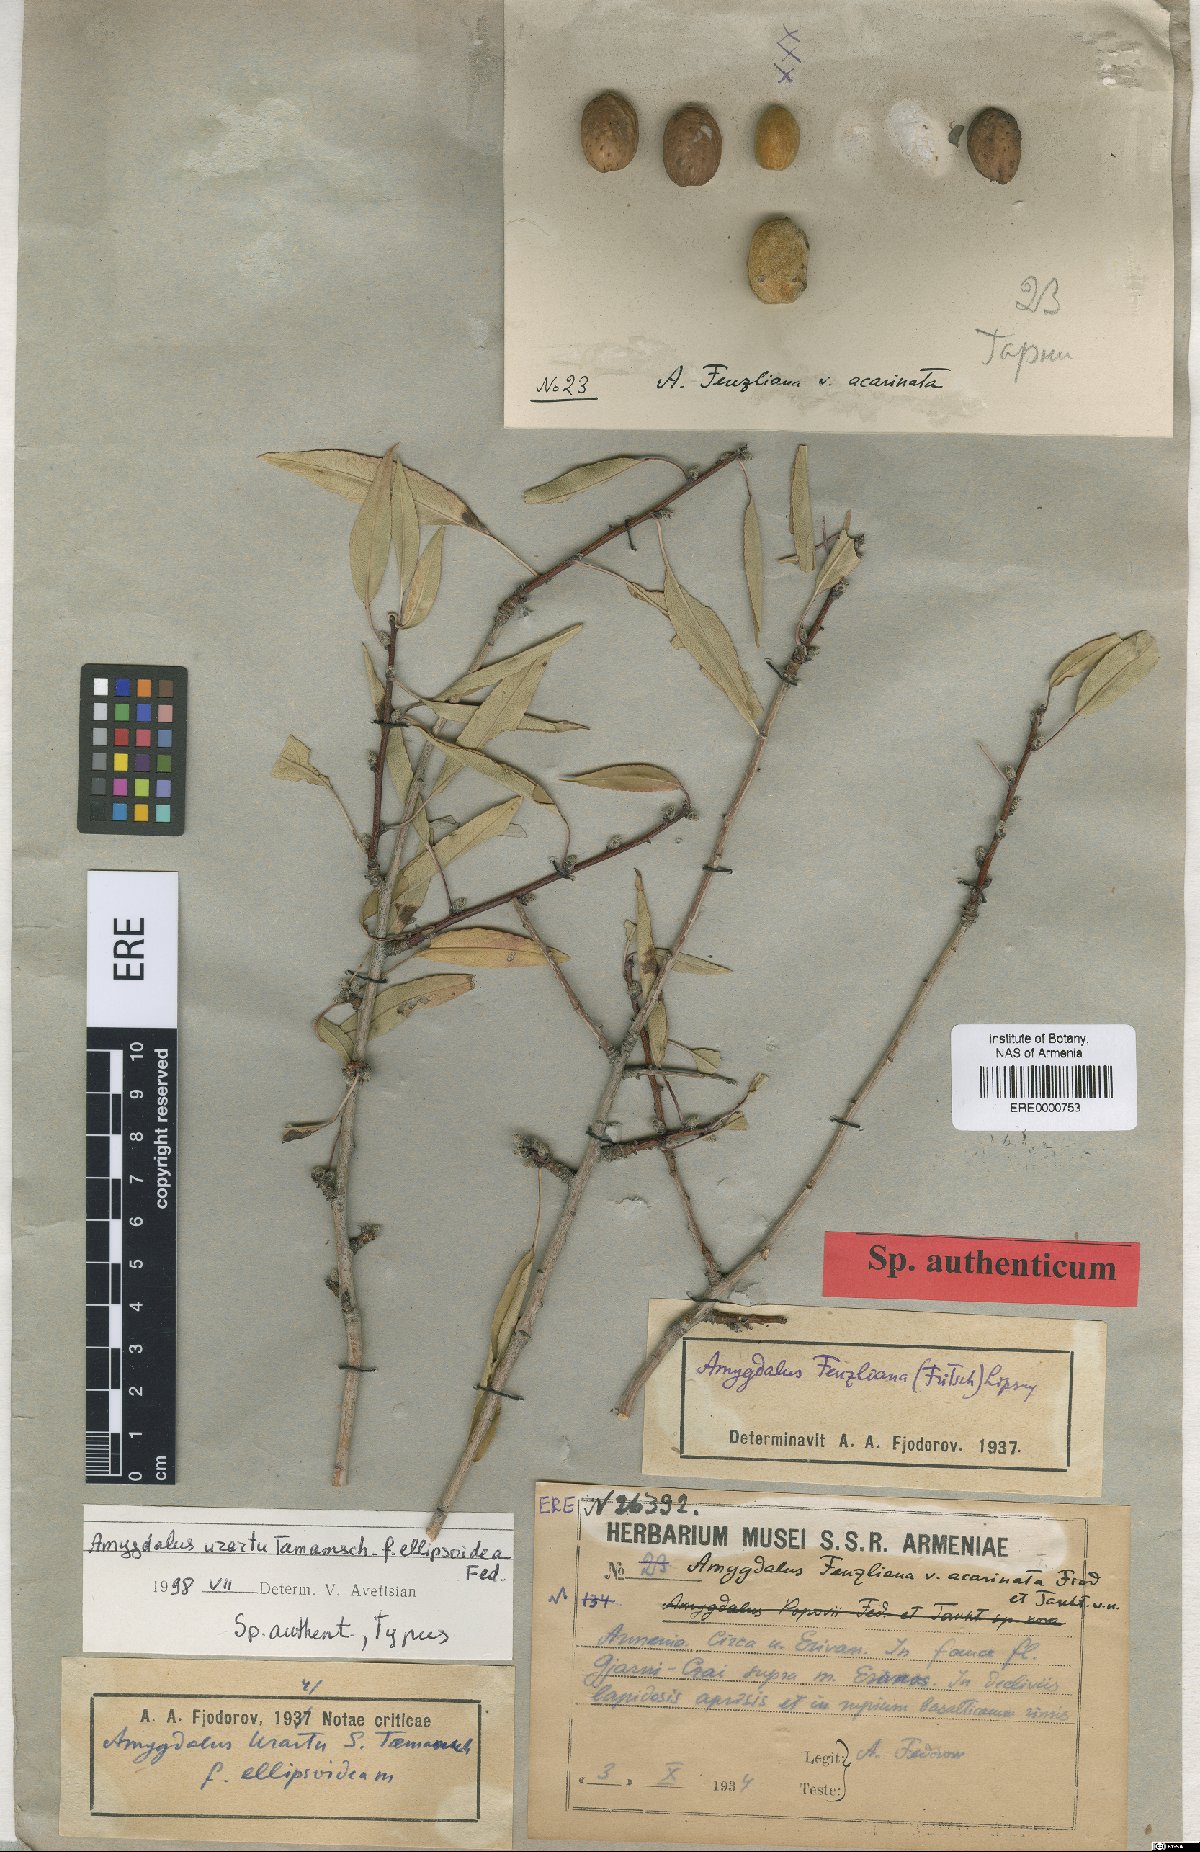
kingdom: Plantae
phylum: Tracheophyta
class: Magnoliopsida
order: Rosales
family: Rosaceae
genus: Prunus
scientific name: Prunus urartu
